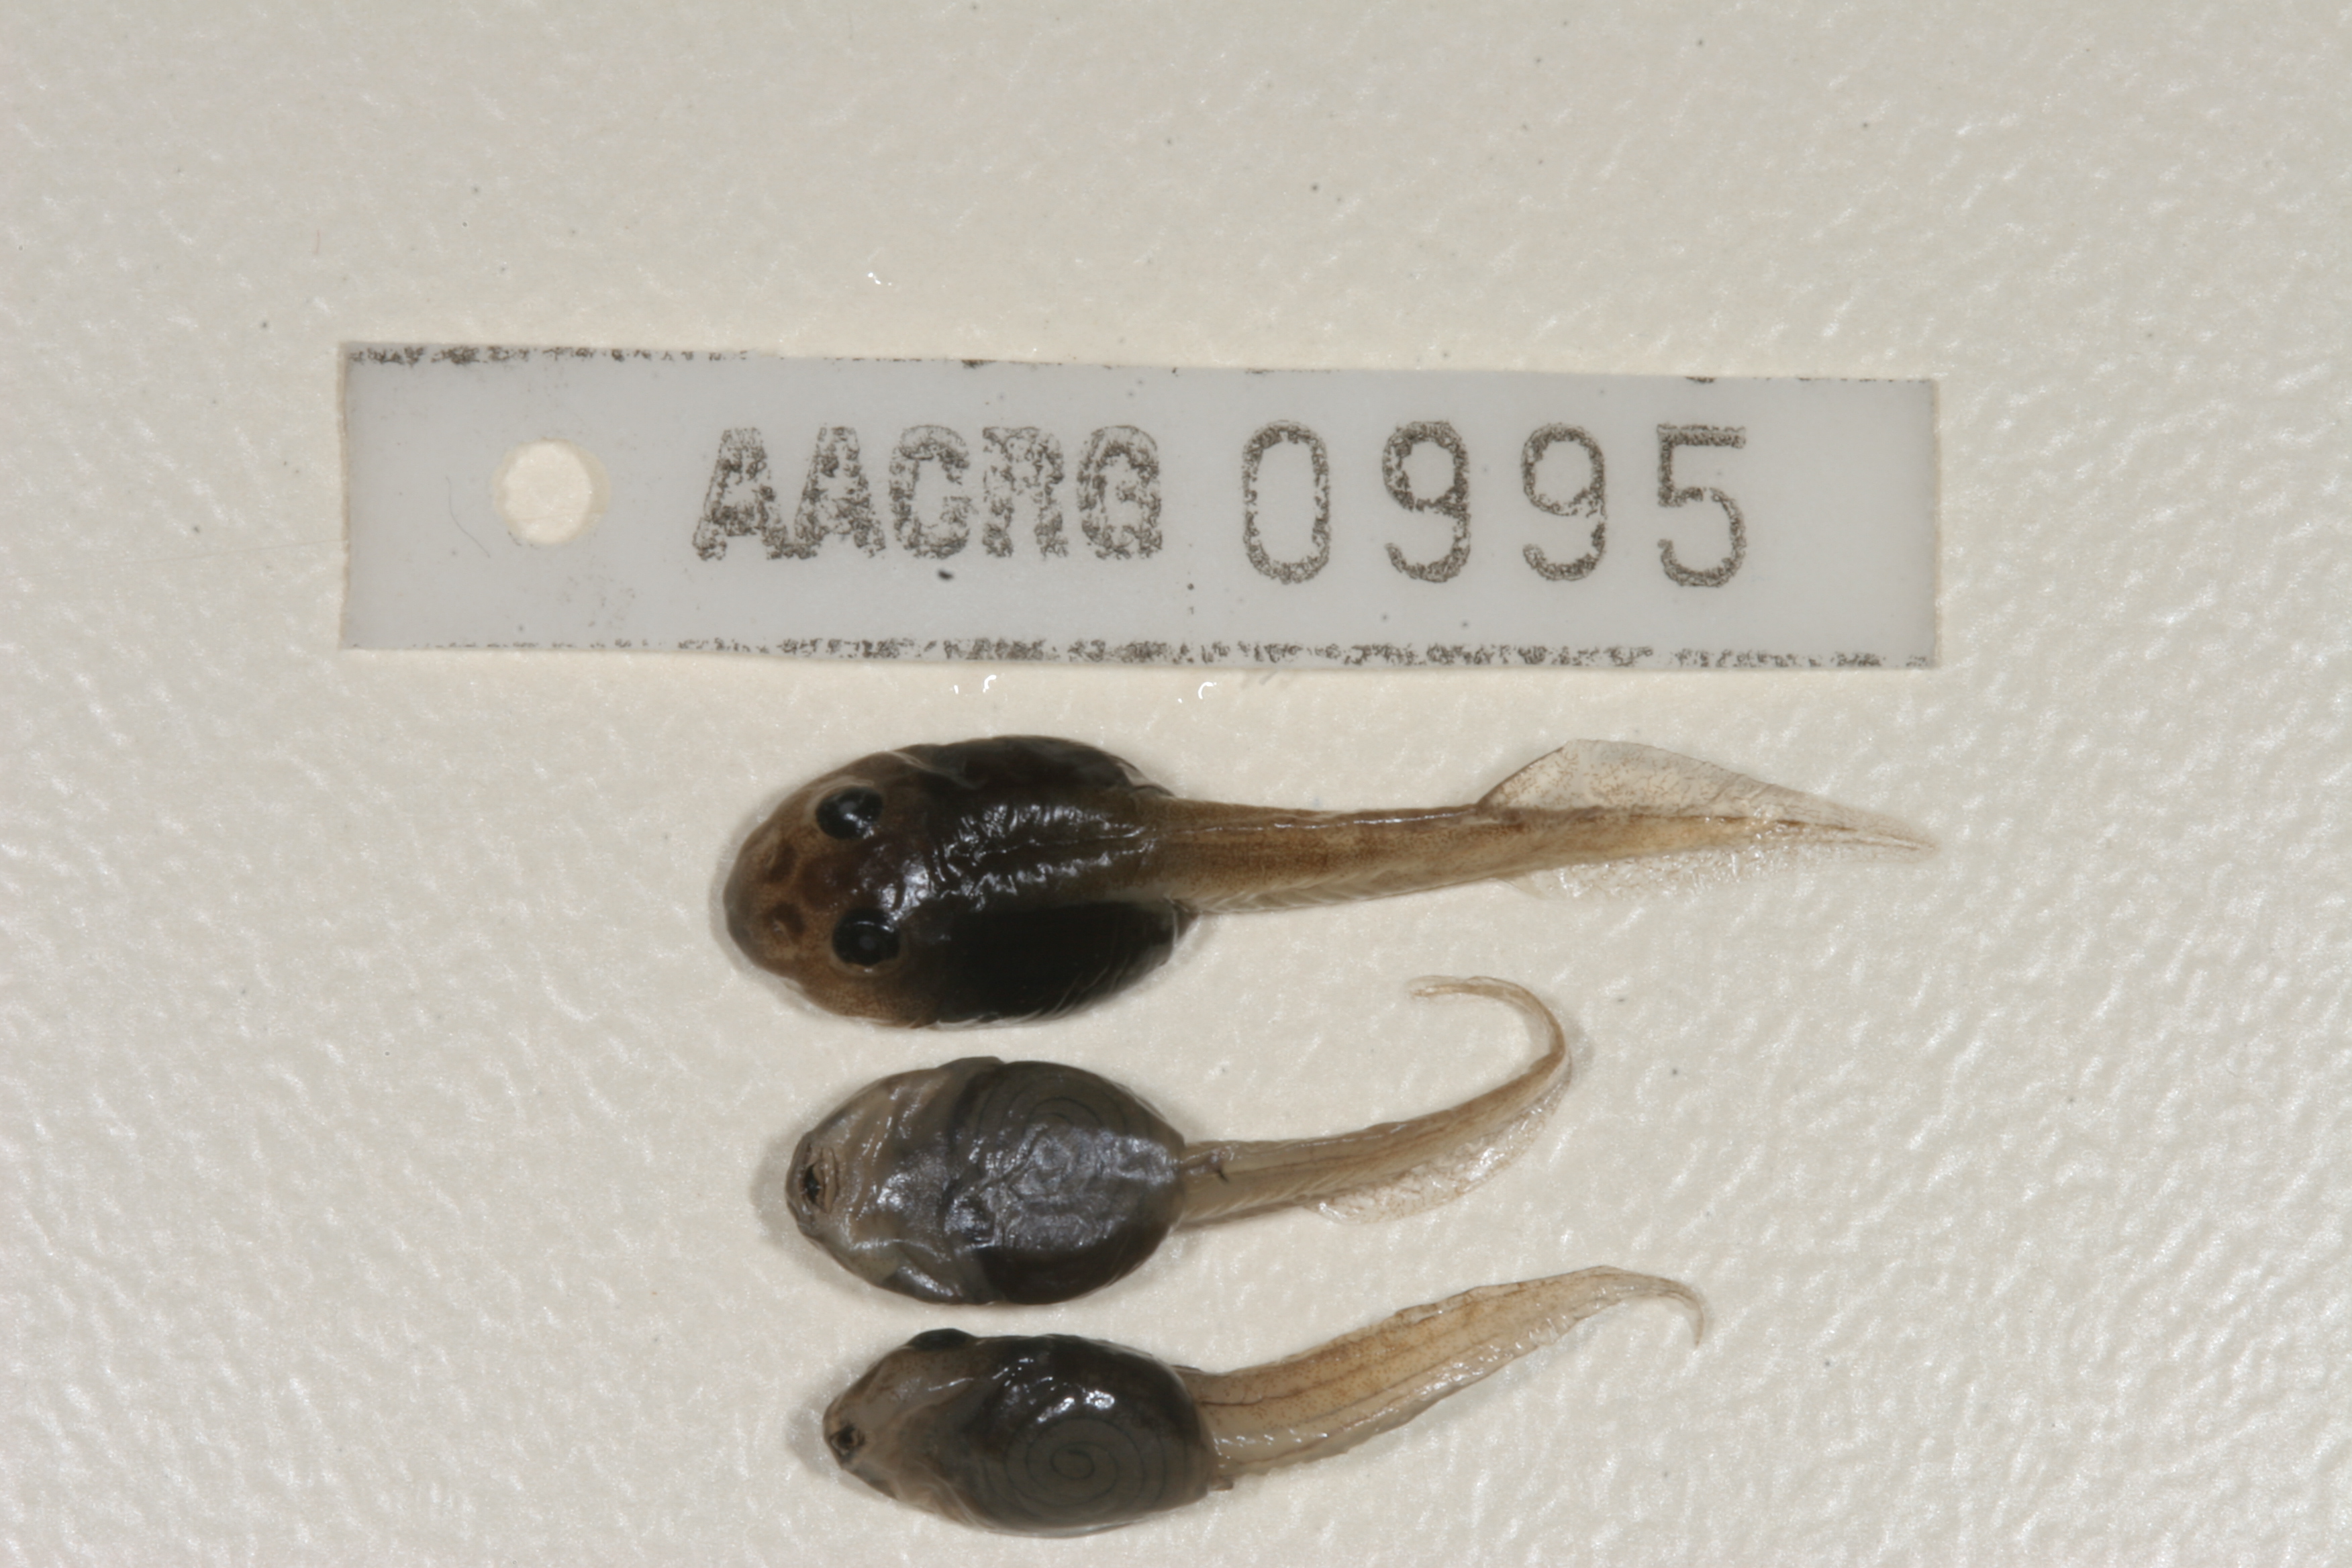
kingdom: Animalia
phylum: Chordata
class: Amphibia
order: Anura
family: Pyxicephalidae
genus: Amietia
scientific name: Amietia angolensis
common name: Dusky-throated frog
